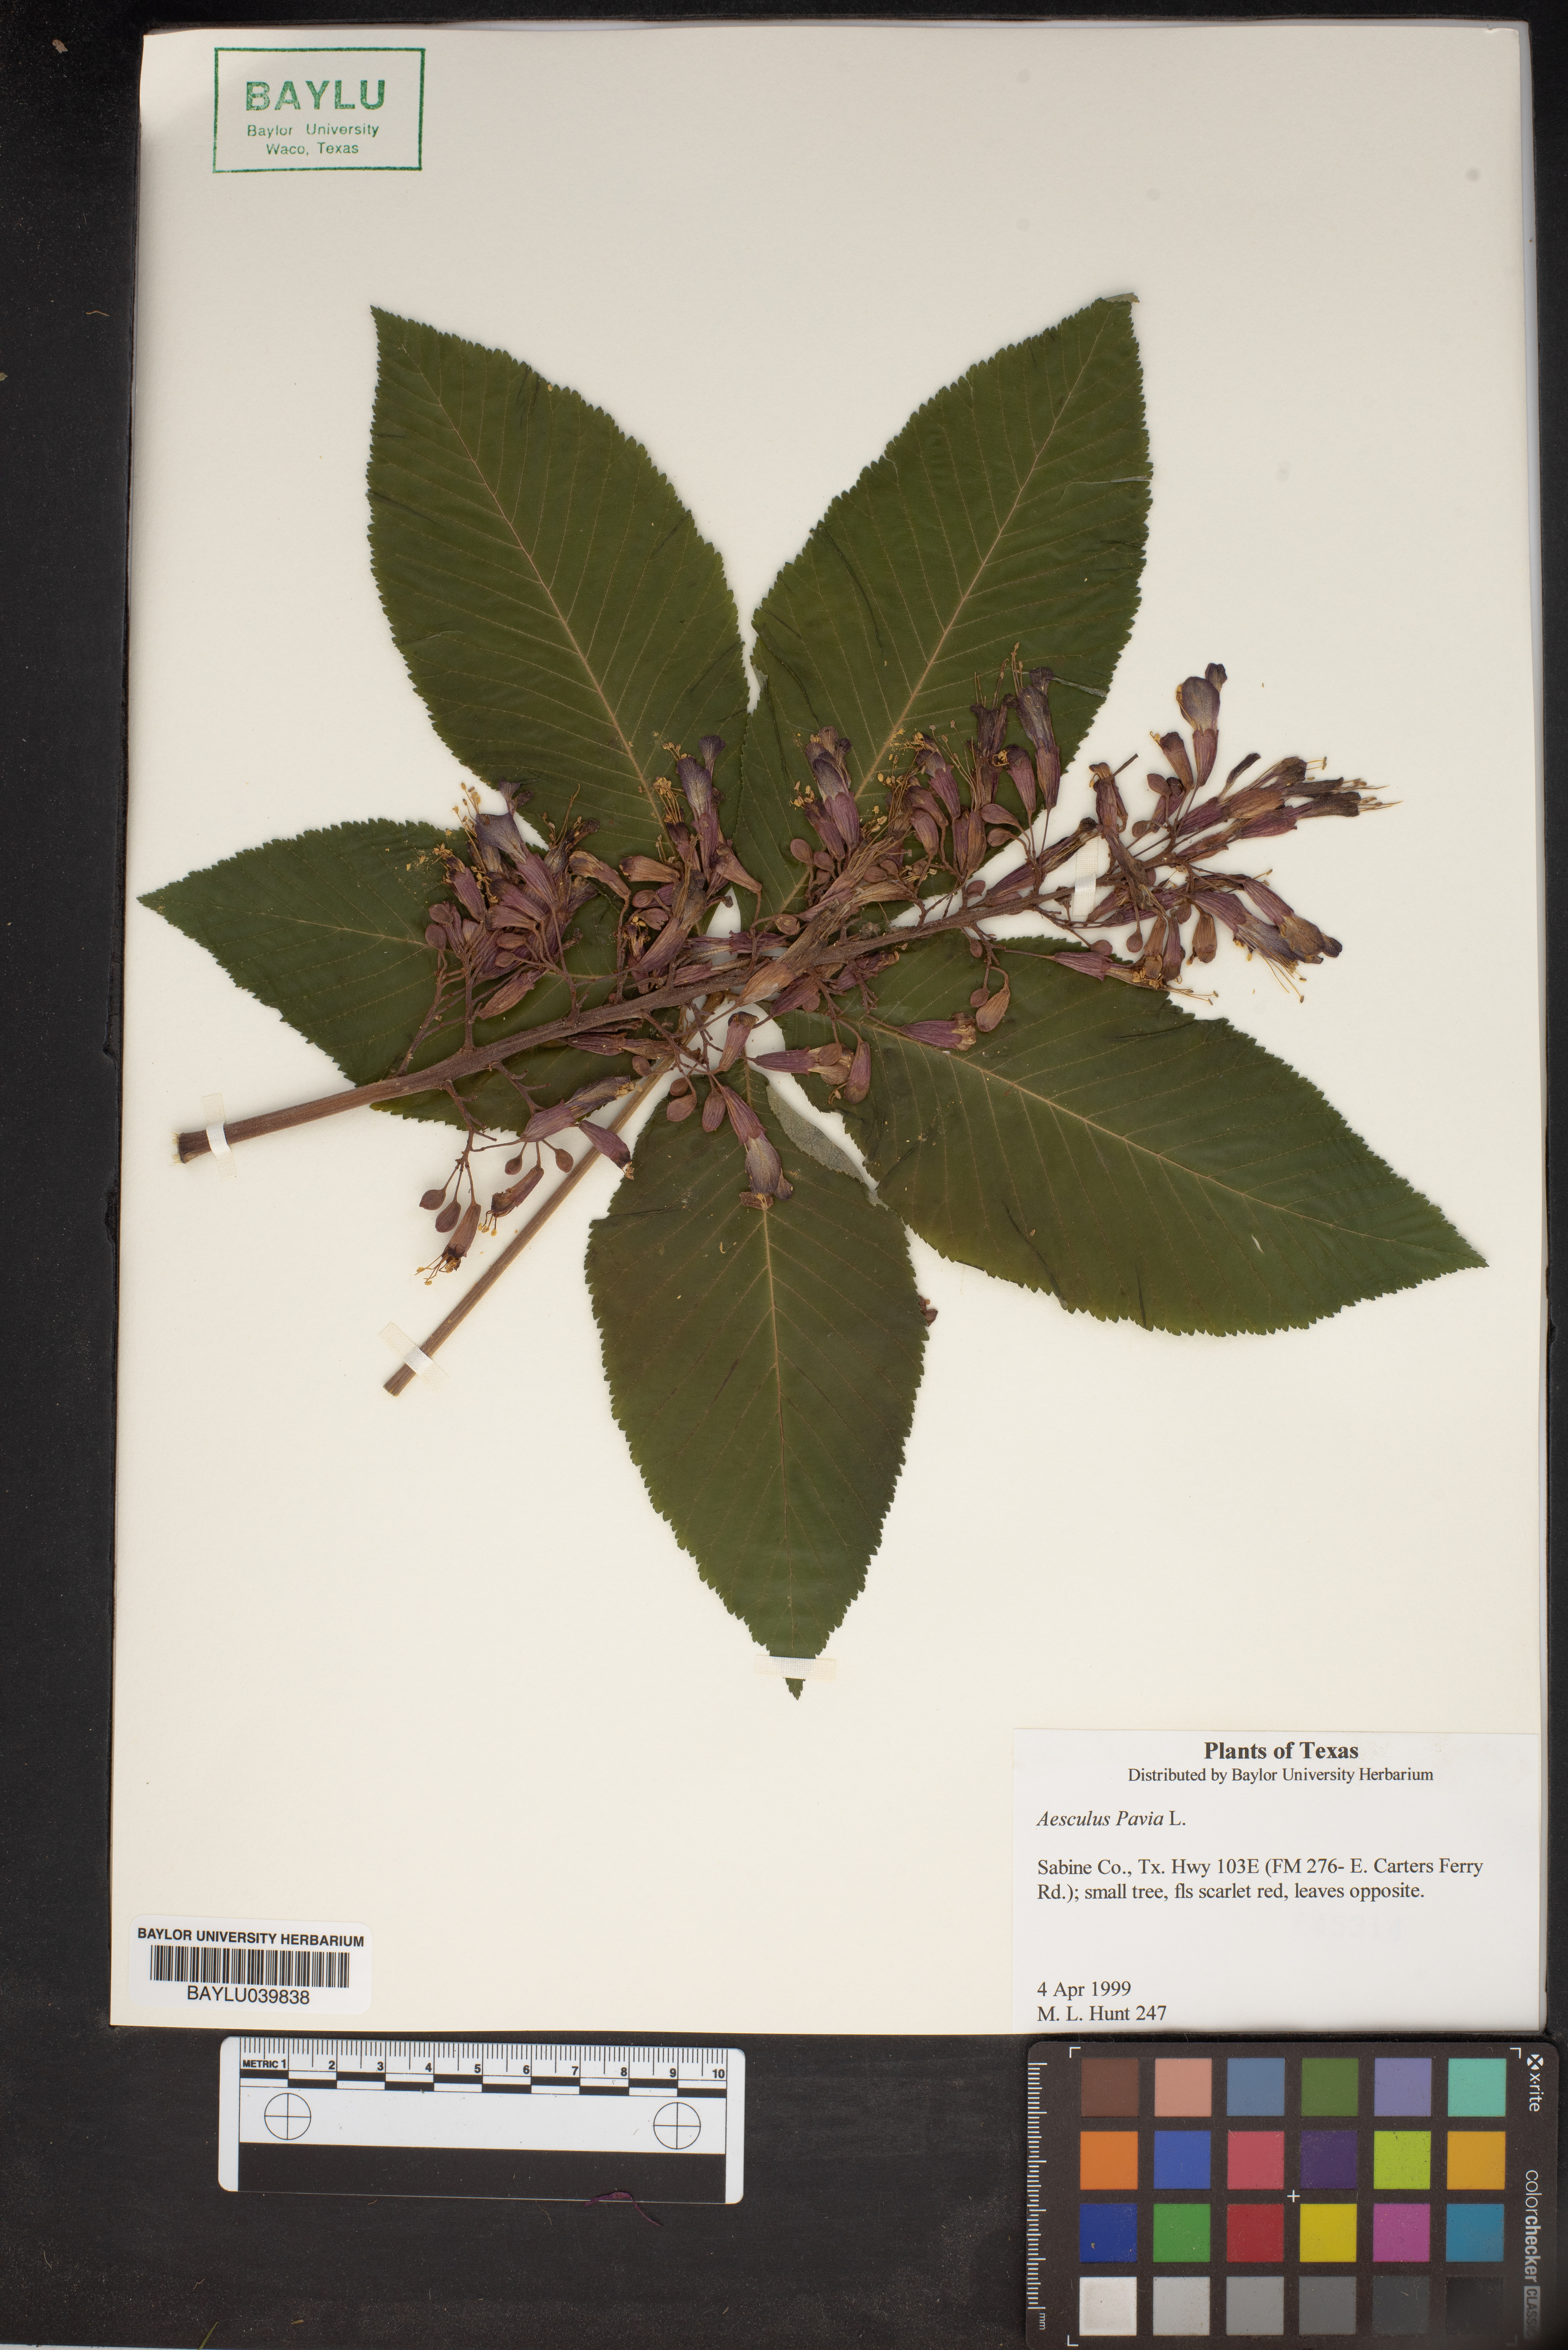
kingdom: Plantae
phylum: Tracheophyta
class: Magnoliopsida
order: Sapindales
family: Sapindaceae
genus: Aesculus
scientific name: Aesculus pavia
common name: Red buckeye
